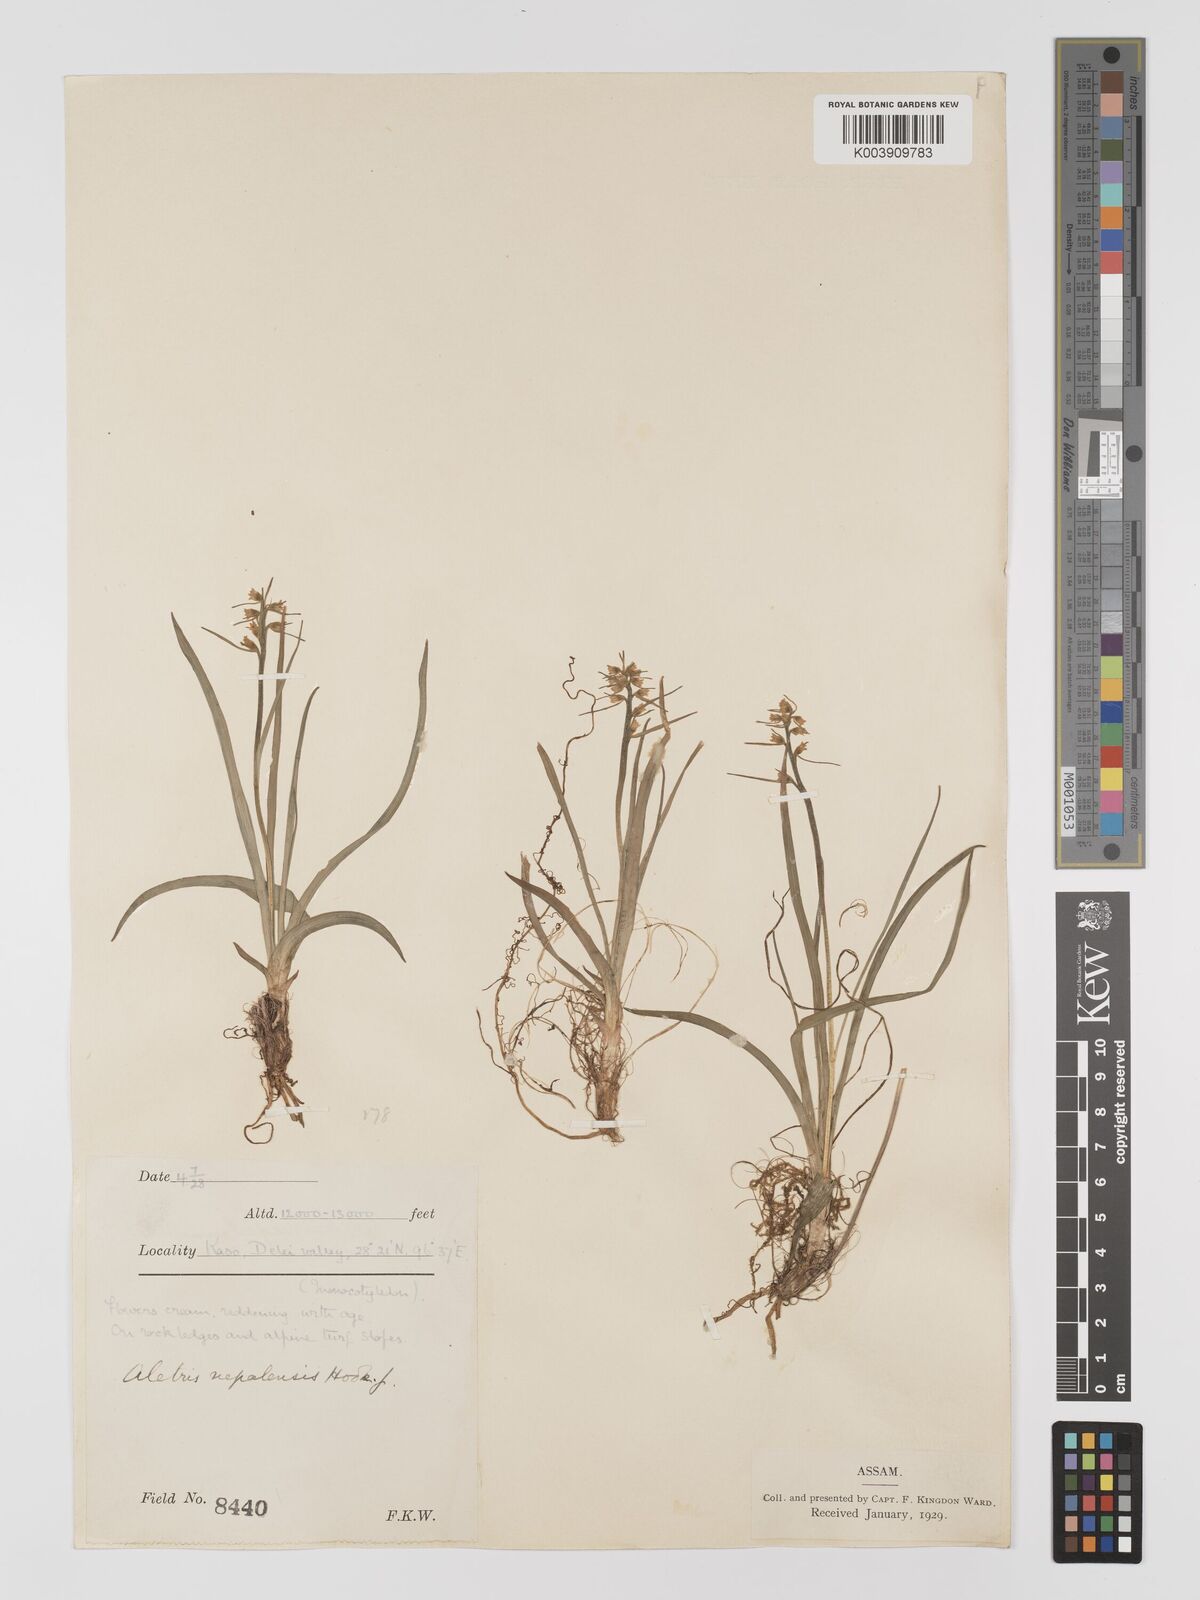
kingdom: Plantae
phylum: Tracheophyta
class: Liliopsida
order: Dioscoreales
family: Nartheciaceae
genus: Aletris
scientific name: Aletris pauciflora
